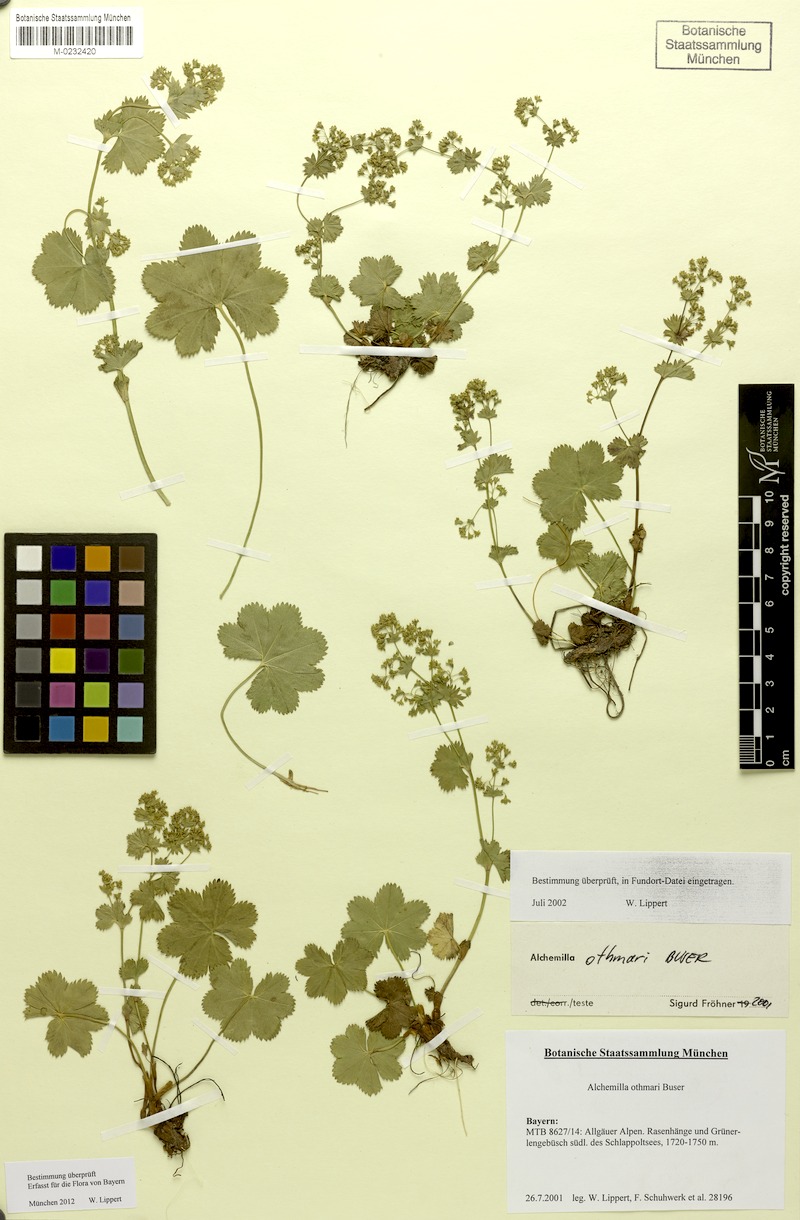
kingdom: Plantae
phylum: Tracheophyta
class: Magnoliopsida
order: Rosales
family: Rosaceae
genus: Alchemilla
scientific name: Alchemilla othmarii
